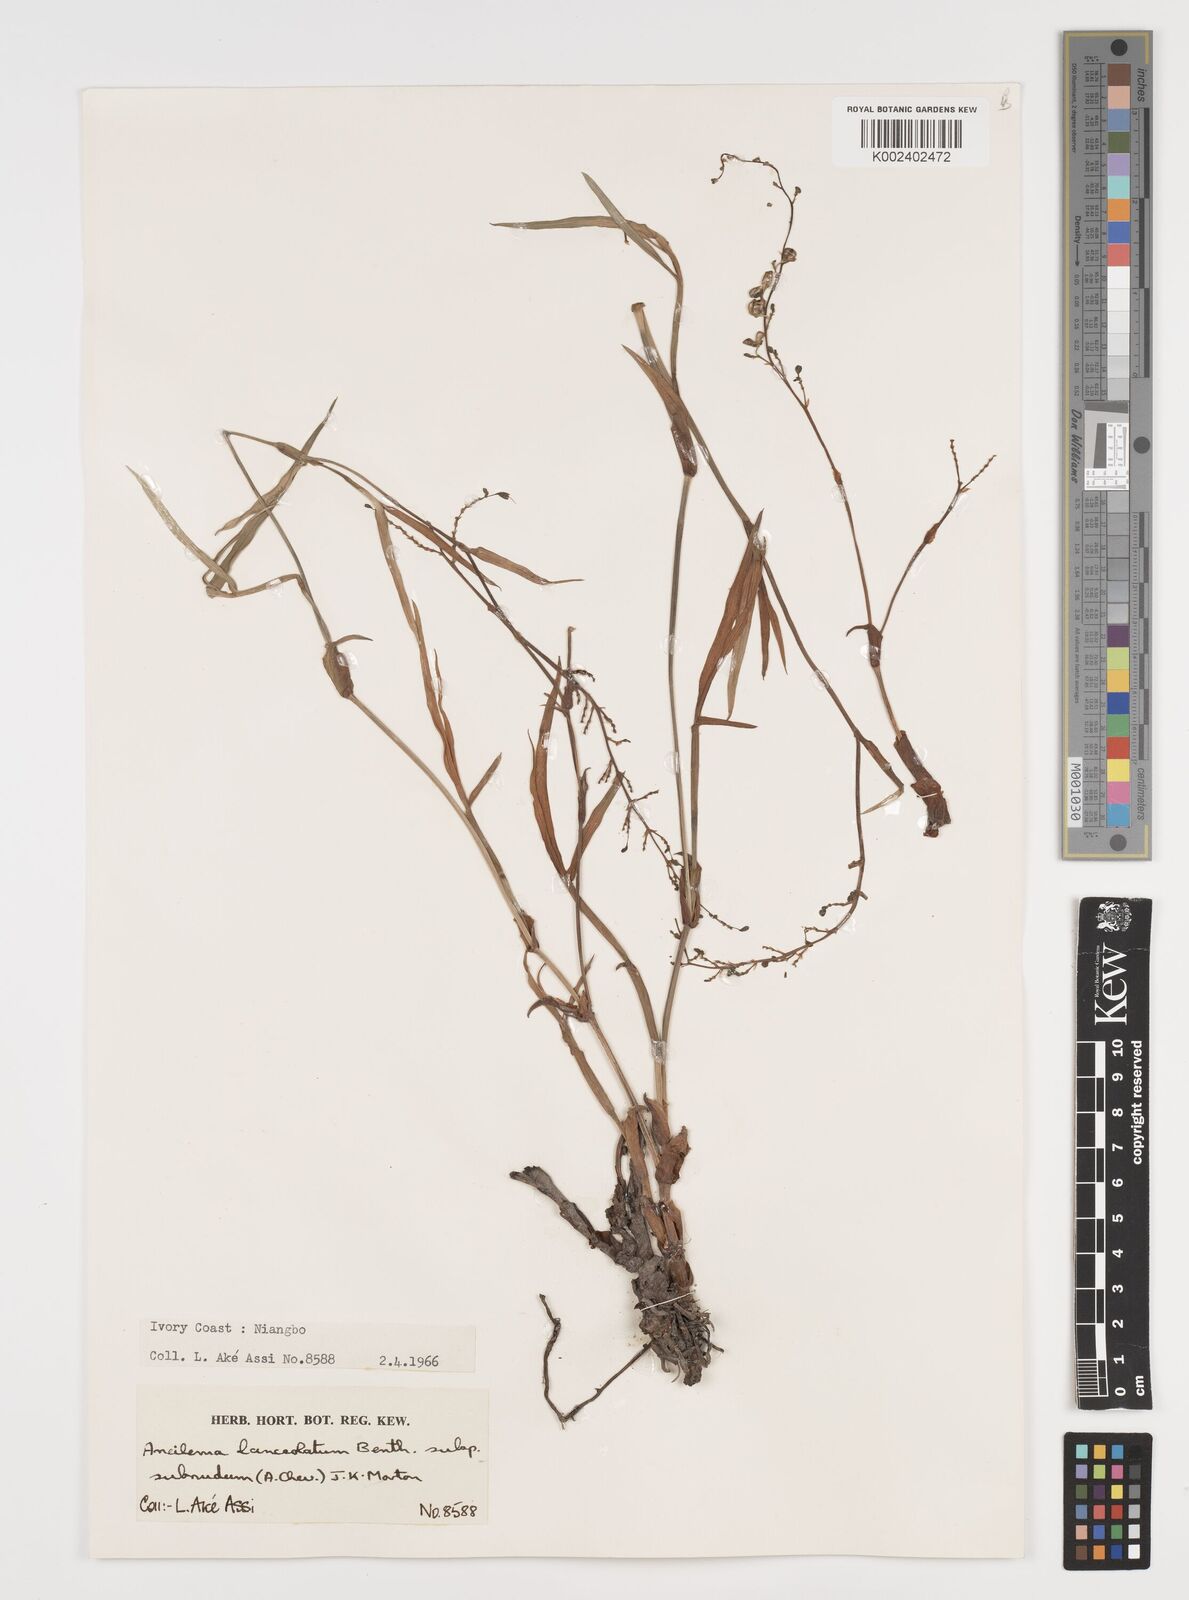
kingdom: Plantae
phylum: Tracheophyta
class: Liliopsida
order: Commelinales
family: Commelinaceae
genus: Aneilema
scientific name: Aneilema lanceolatum
